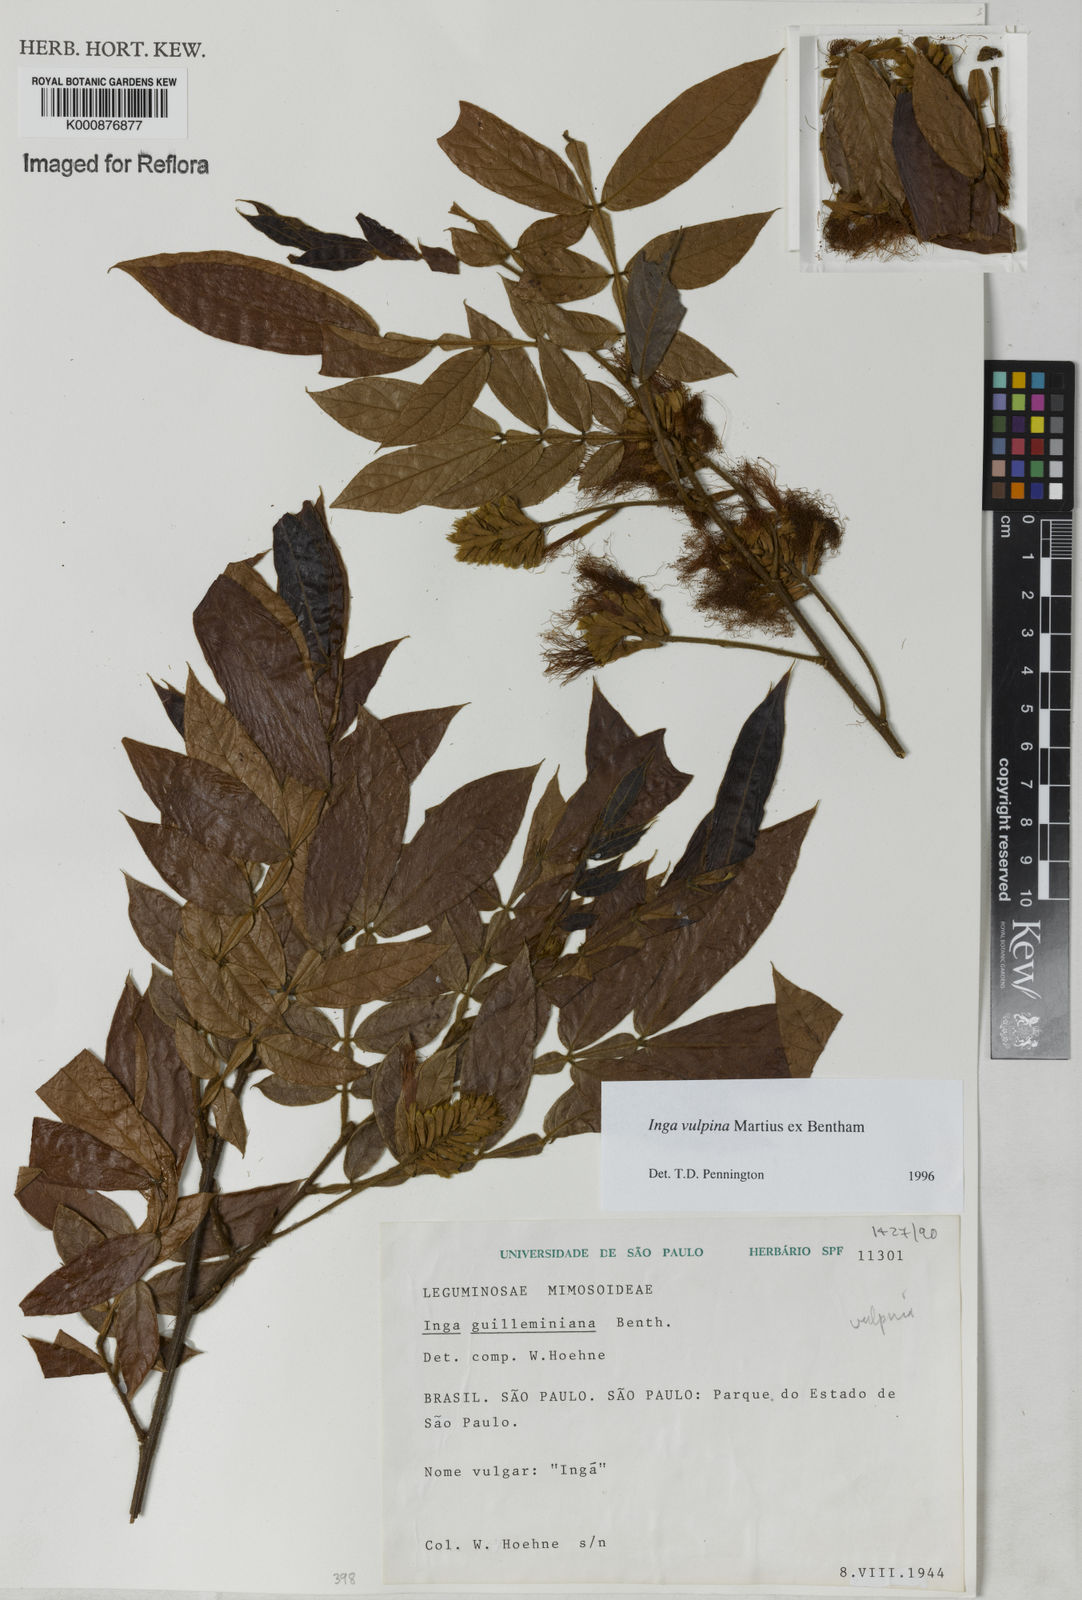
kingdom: Plantae
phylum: Tracheophyta
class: Magnoliopsida
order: Fabales
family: Fabaceae
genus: Inga
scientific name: Inga vulpina
